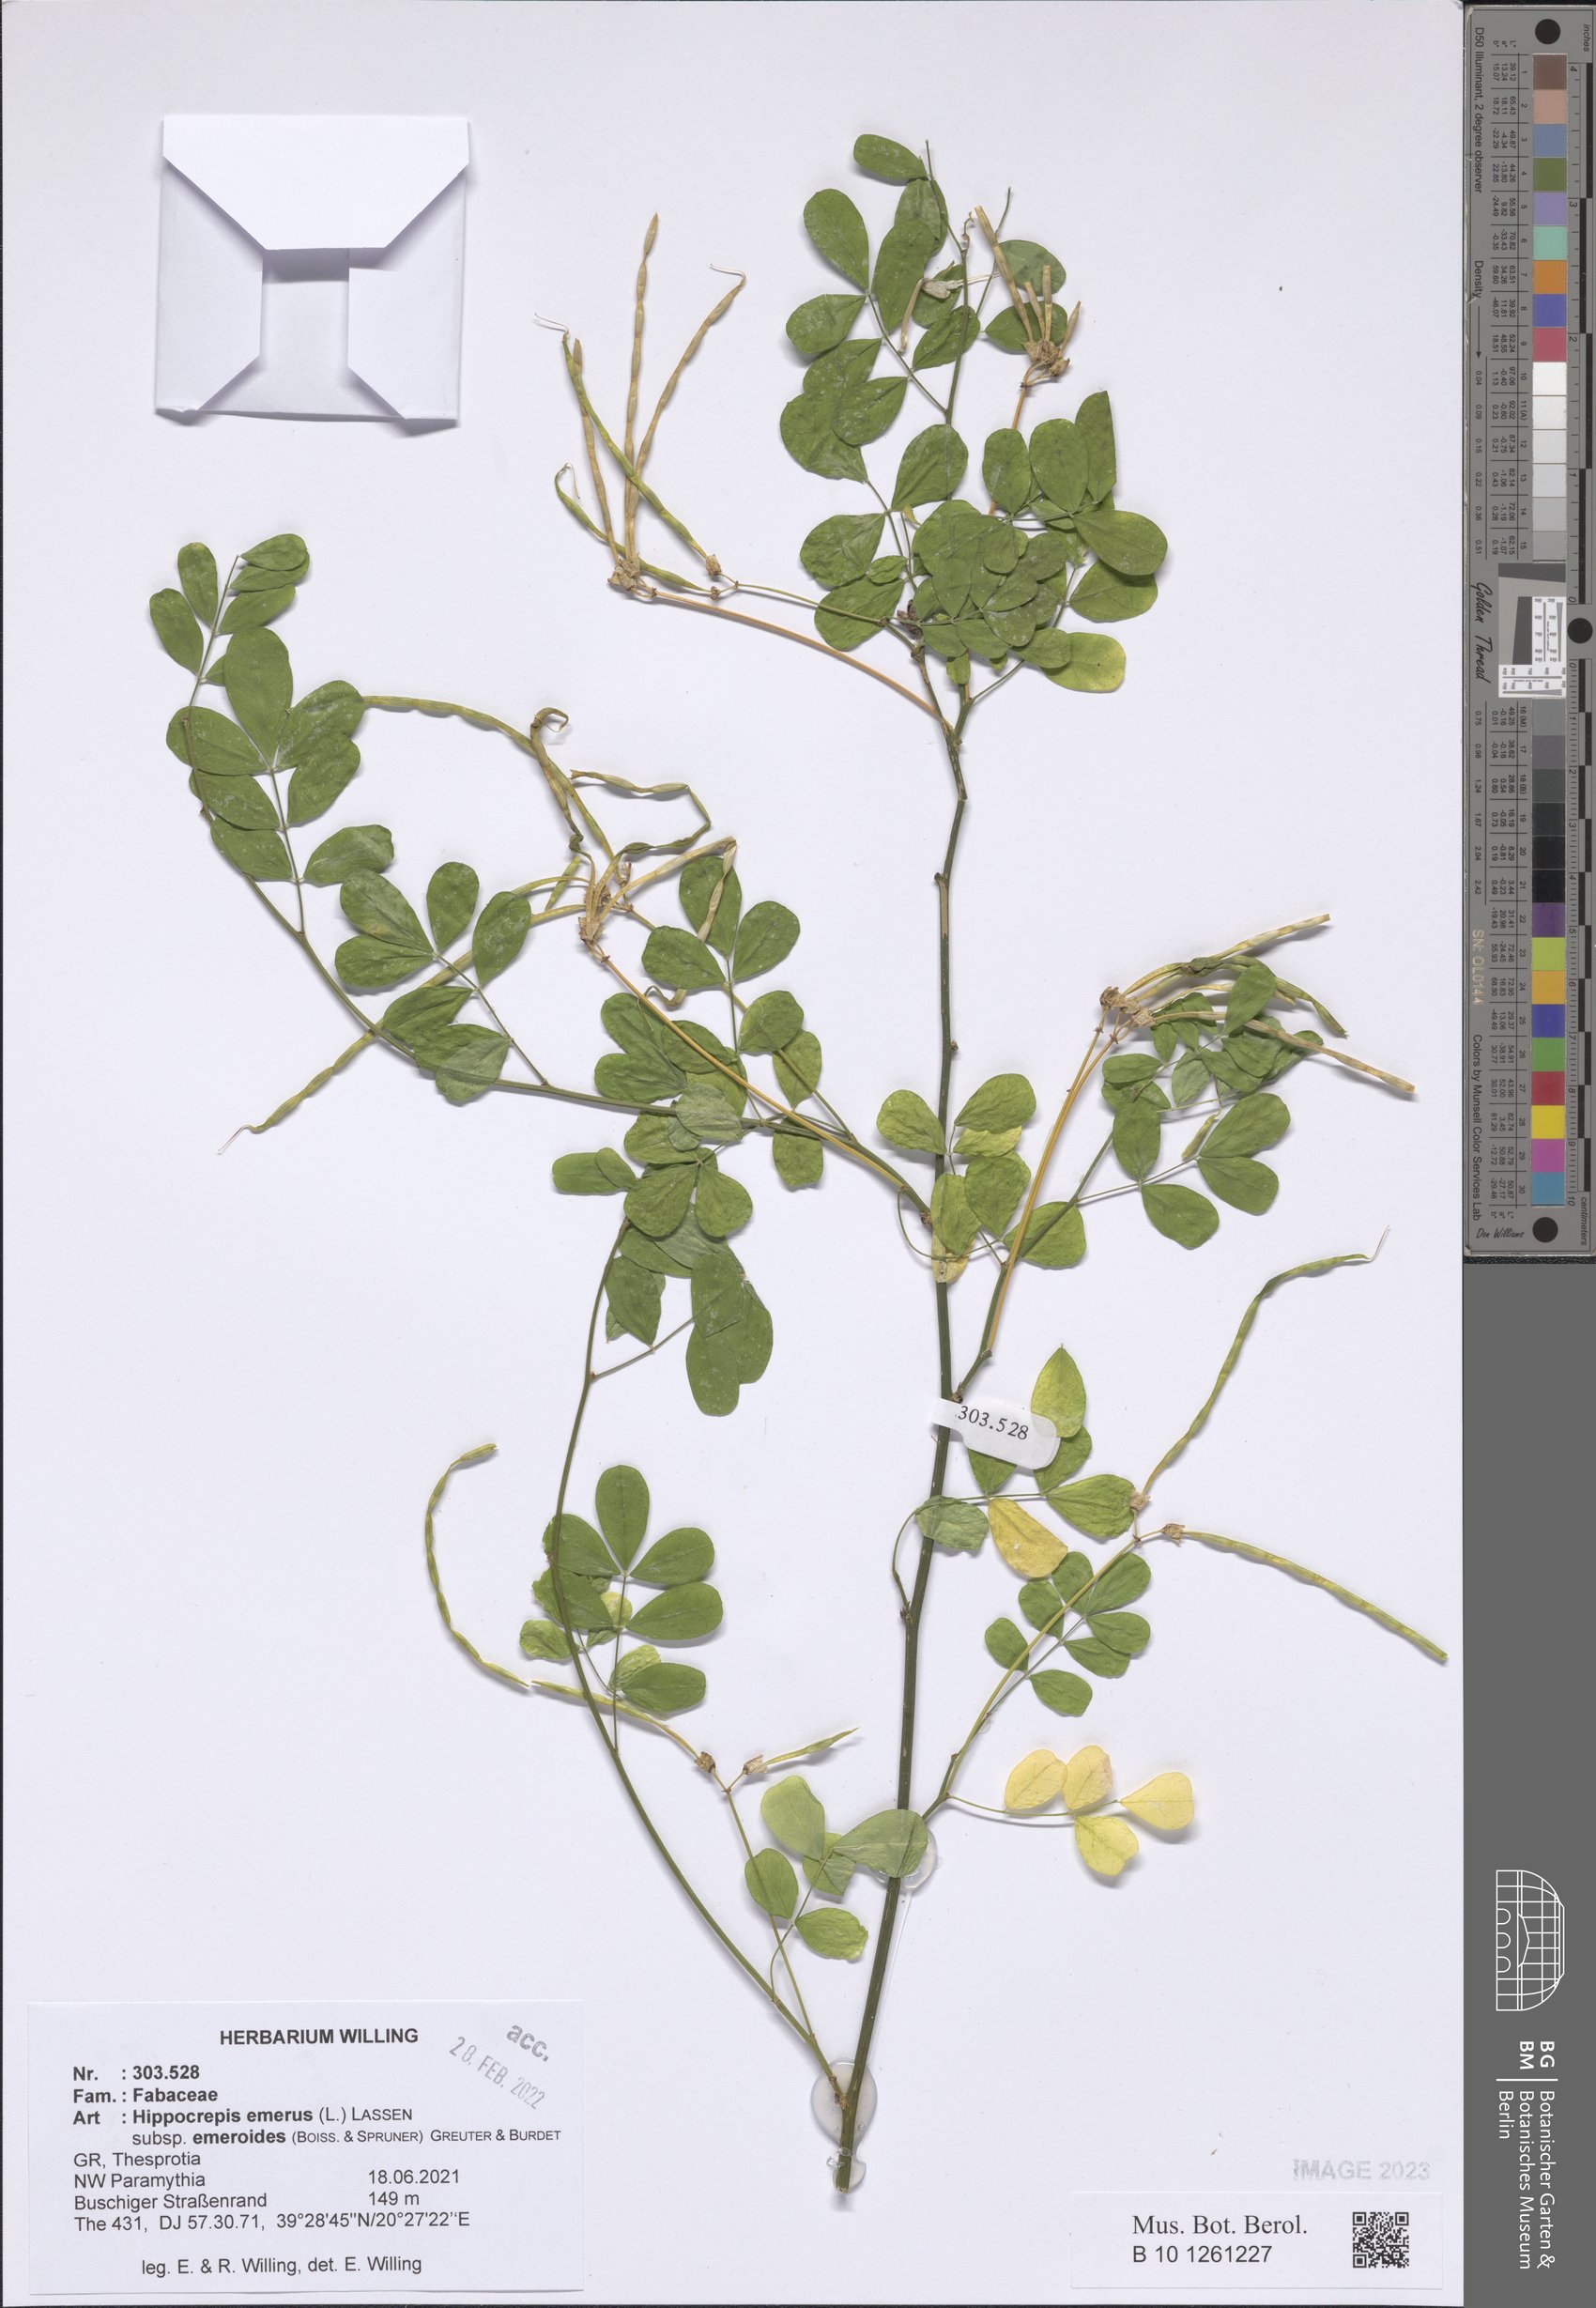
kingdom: Plantae
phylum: Tracheophyta
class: Magnoliopsida
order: Fabales
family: Fabaceae
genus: Hippocrepis
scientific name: Hippocrepis emerus
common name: Scorpion senna
